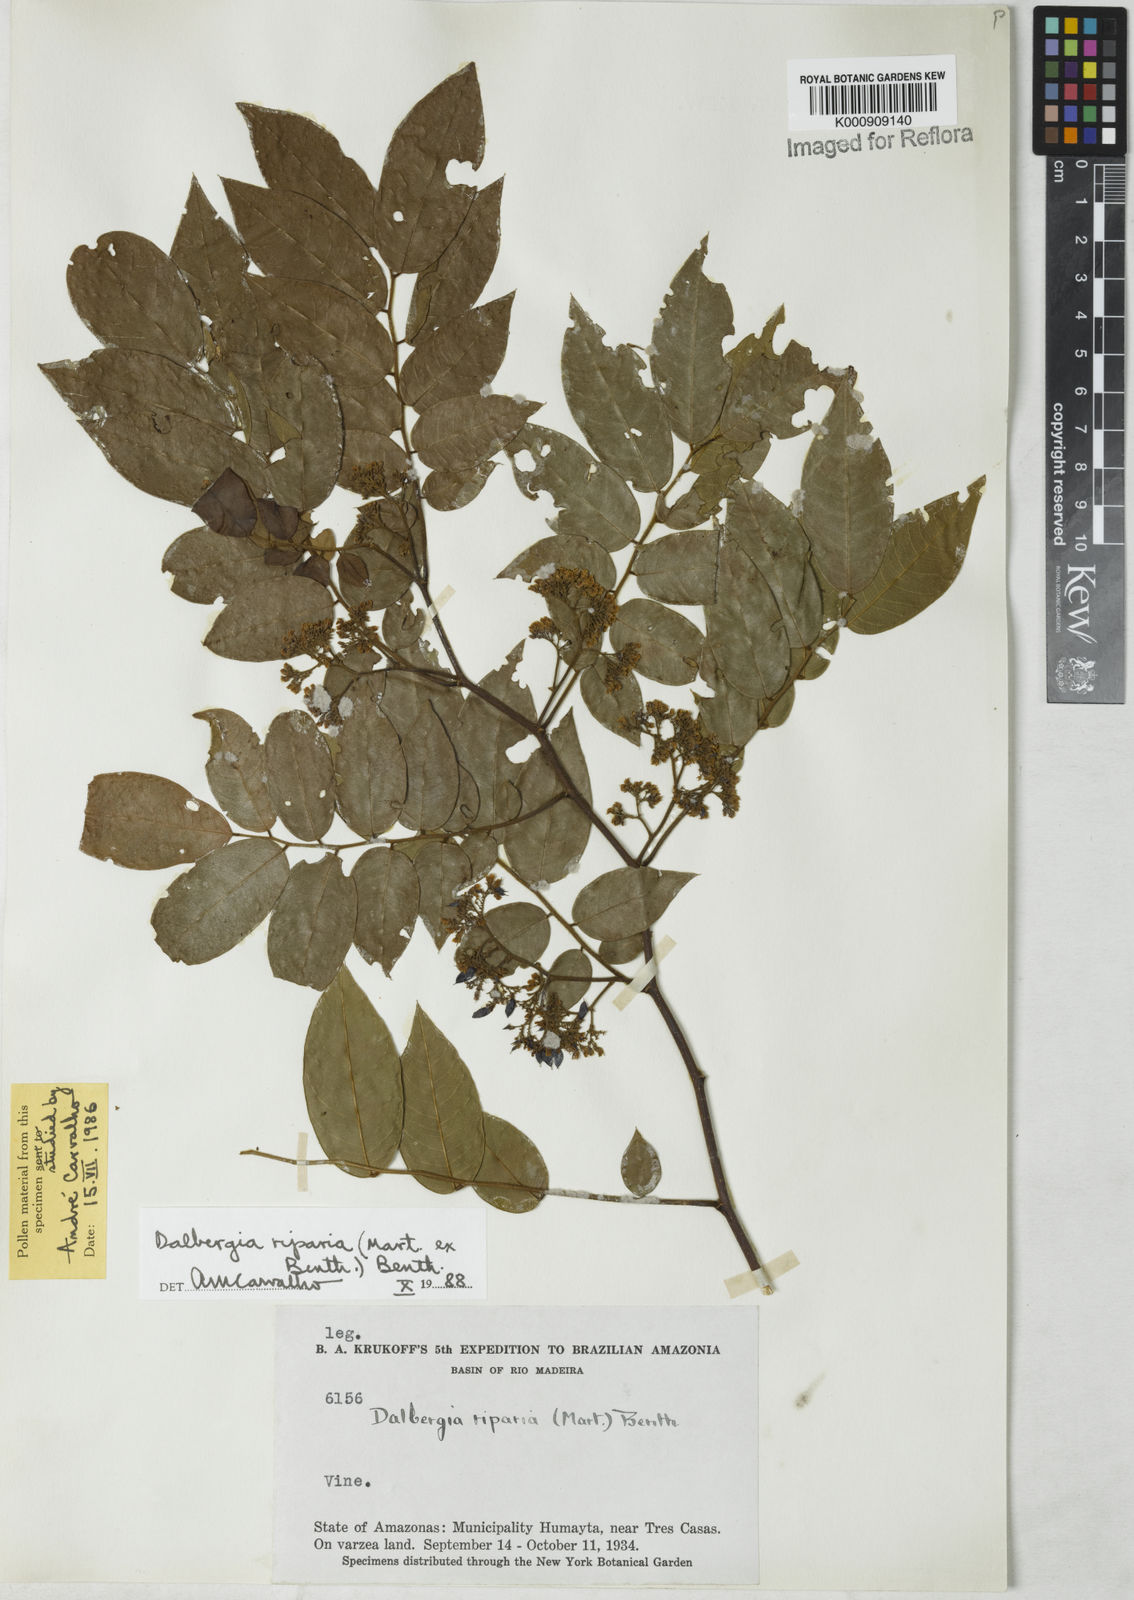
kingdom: Plantae
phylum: Tracheophyta
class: Magnoliopsida
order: Fabales
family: Fabaceae
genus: Dalbergia
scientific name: Dalbergia riparia
